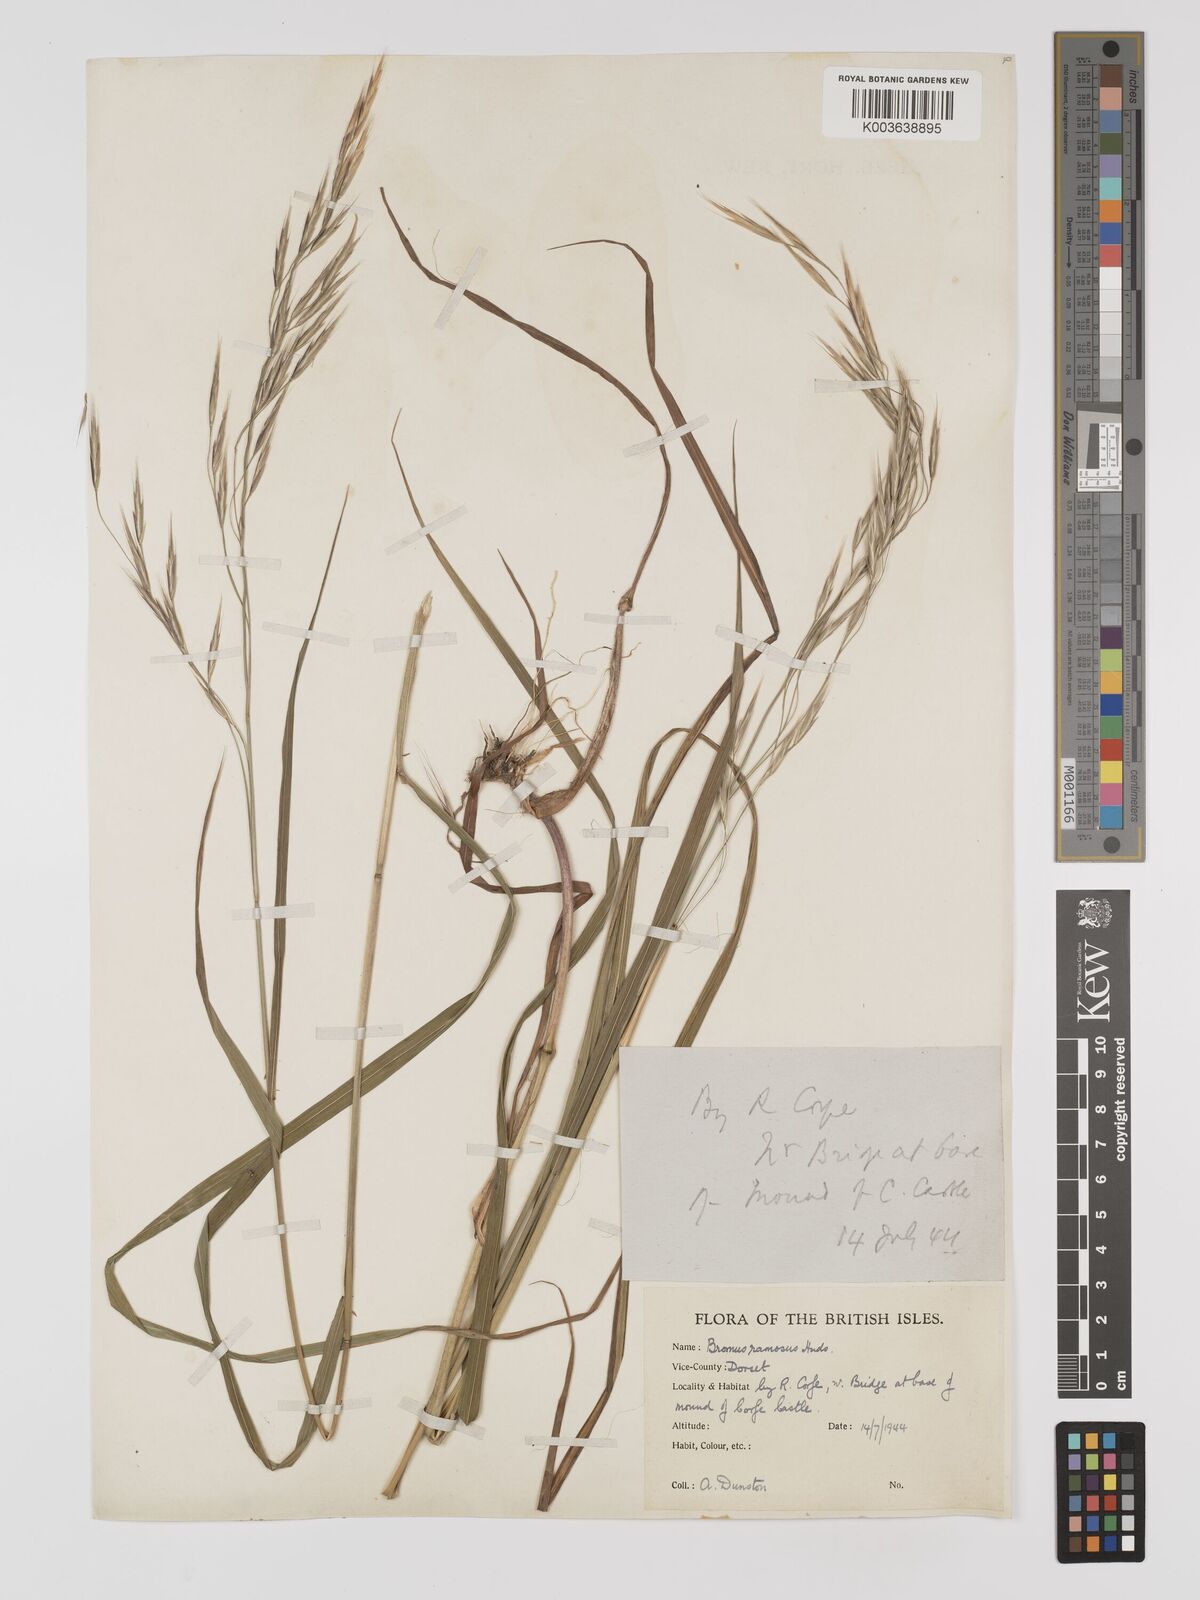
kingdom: Plantae
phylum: Tracheophyta
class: Liliopsida
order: Poales
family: Poaceae
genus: Brachypodium
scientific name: Brachypodium retusum
